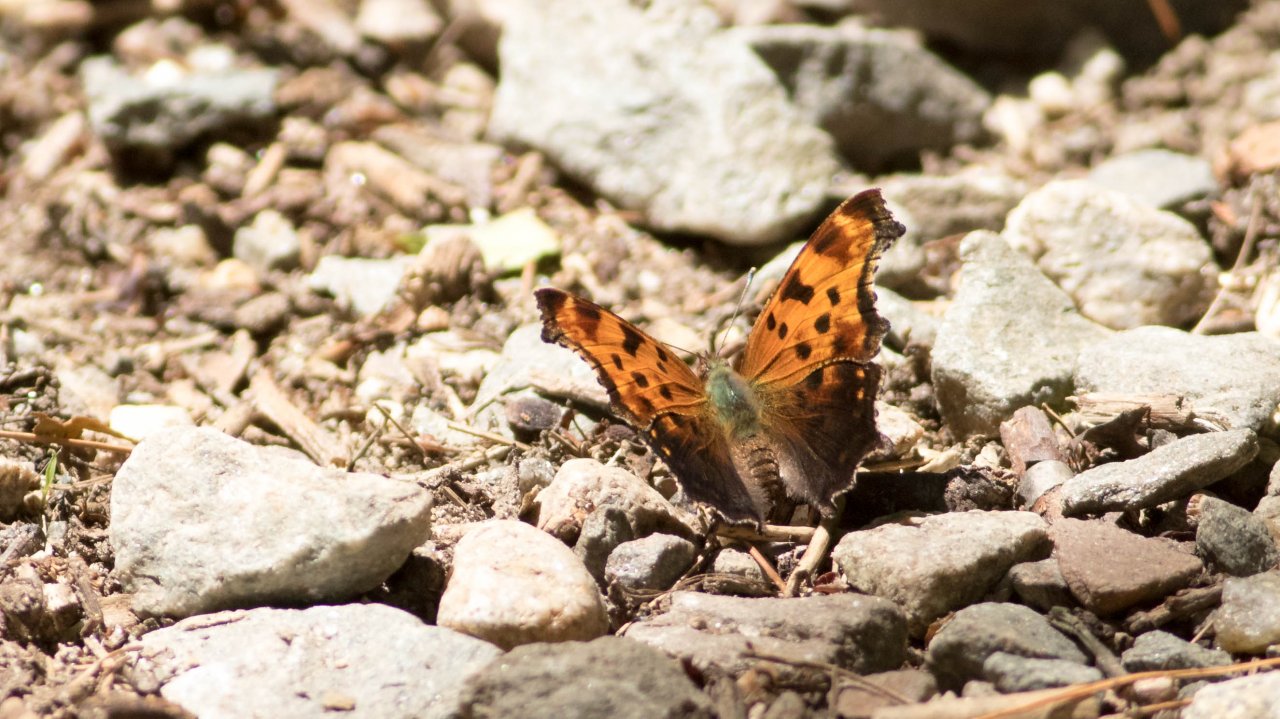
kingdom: Animalia
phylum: Arthropoda
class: Insecta
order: Lepidoptera
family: Nymphalidae
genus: Polygonia
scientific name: Polygonia comma
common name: Eastern Comma
